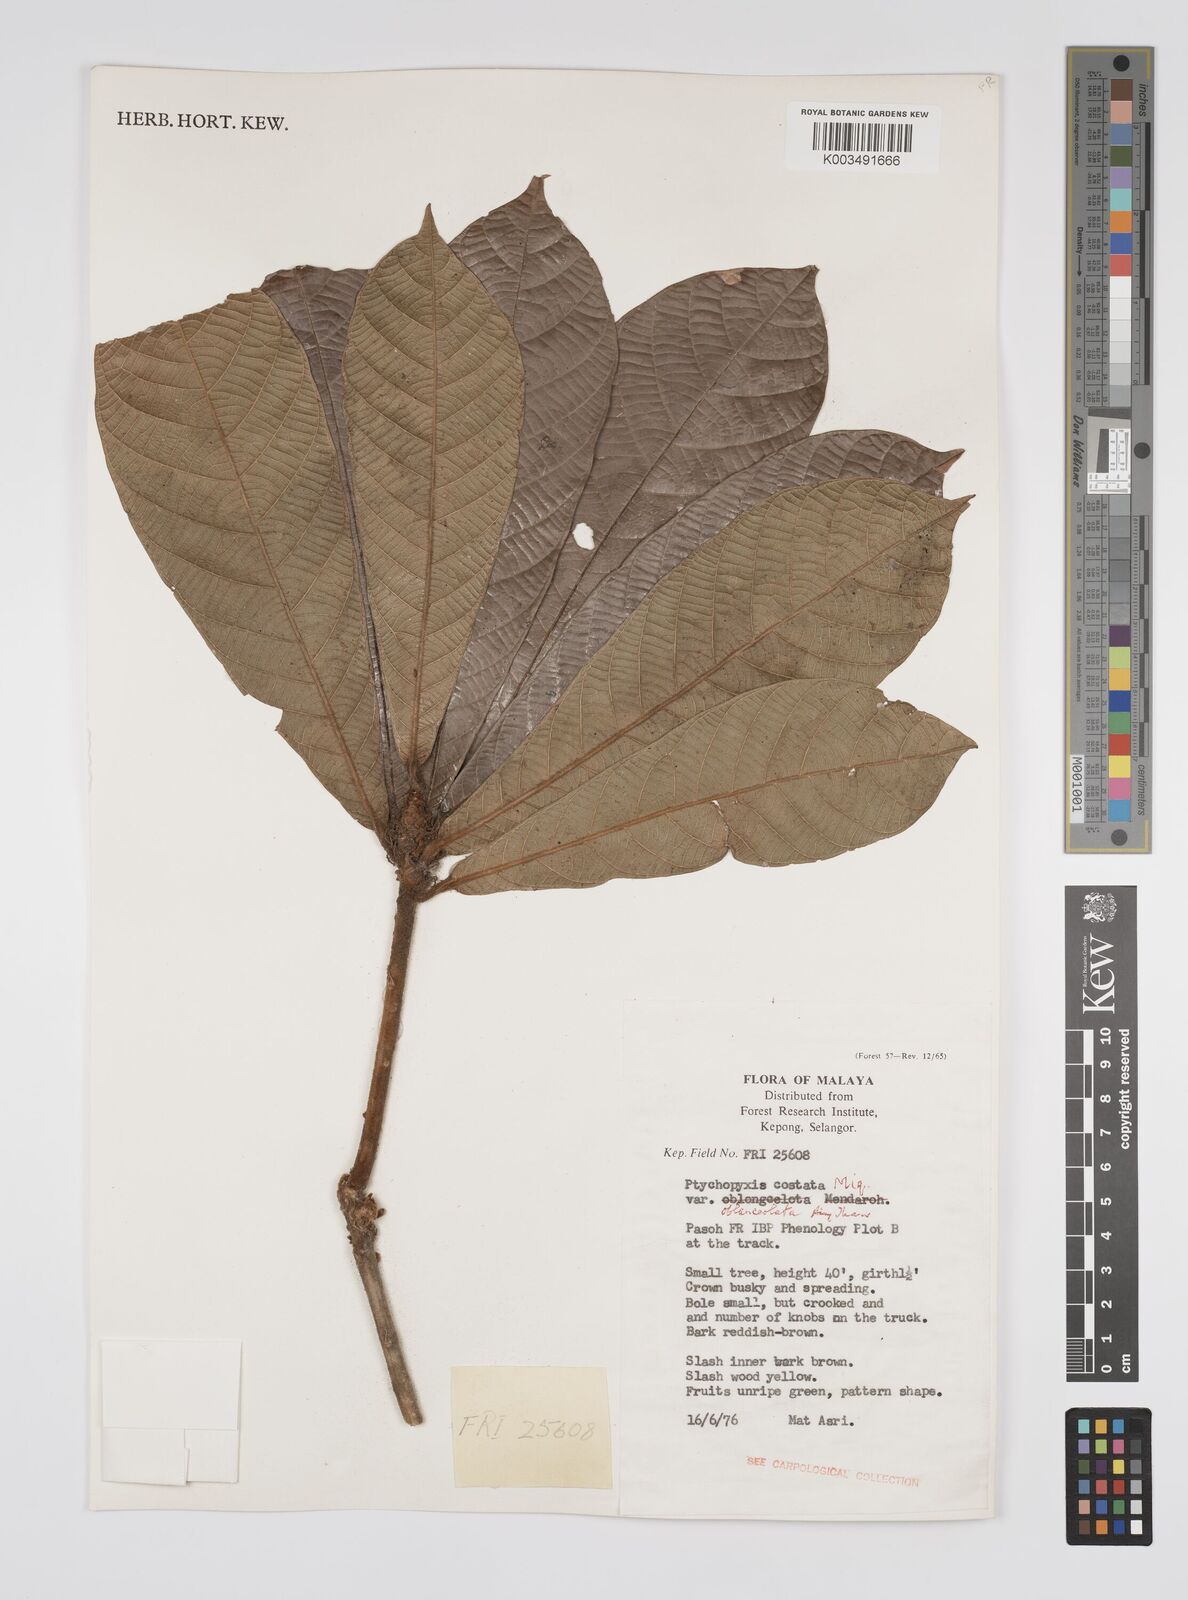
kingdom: Plantae
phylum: Tracheophyta
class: Magnoliopsida
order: Malpighiales
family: Euphorbiaceae
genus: Ptychopyxis
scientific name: Ptychopyxis caput-medusae
